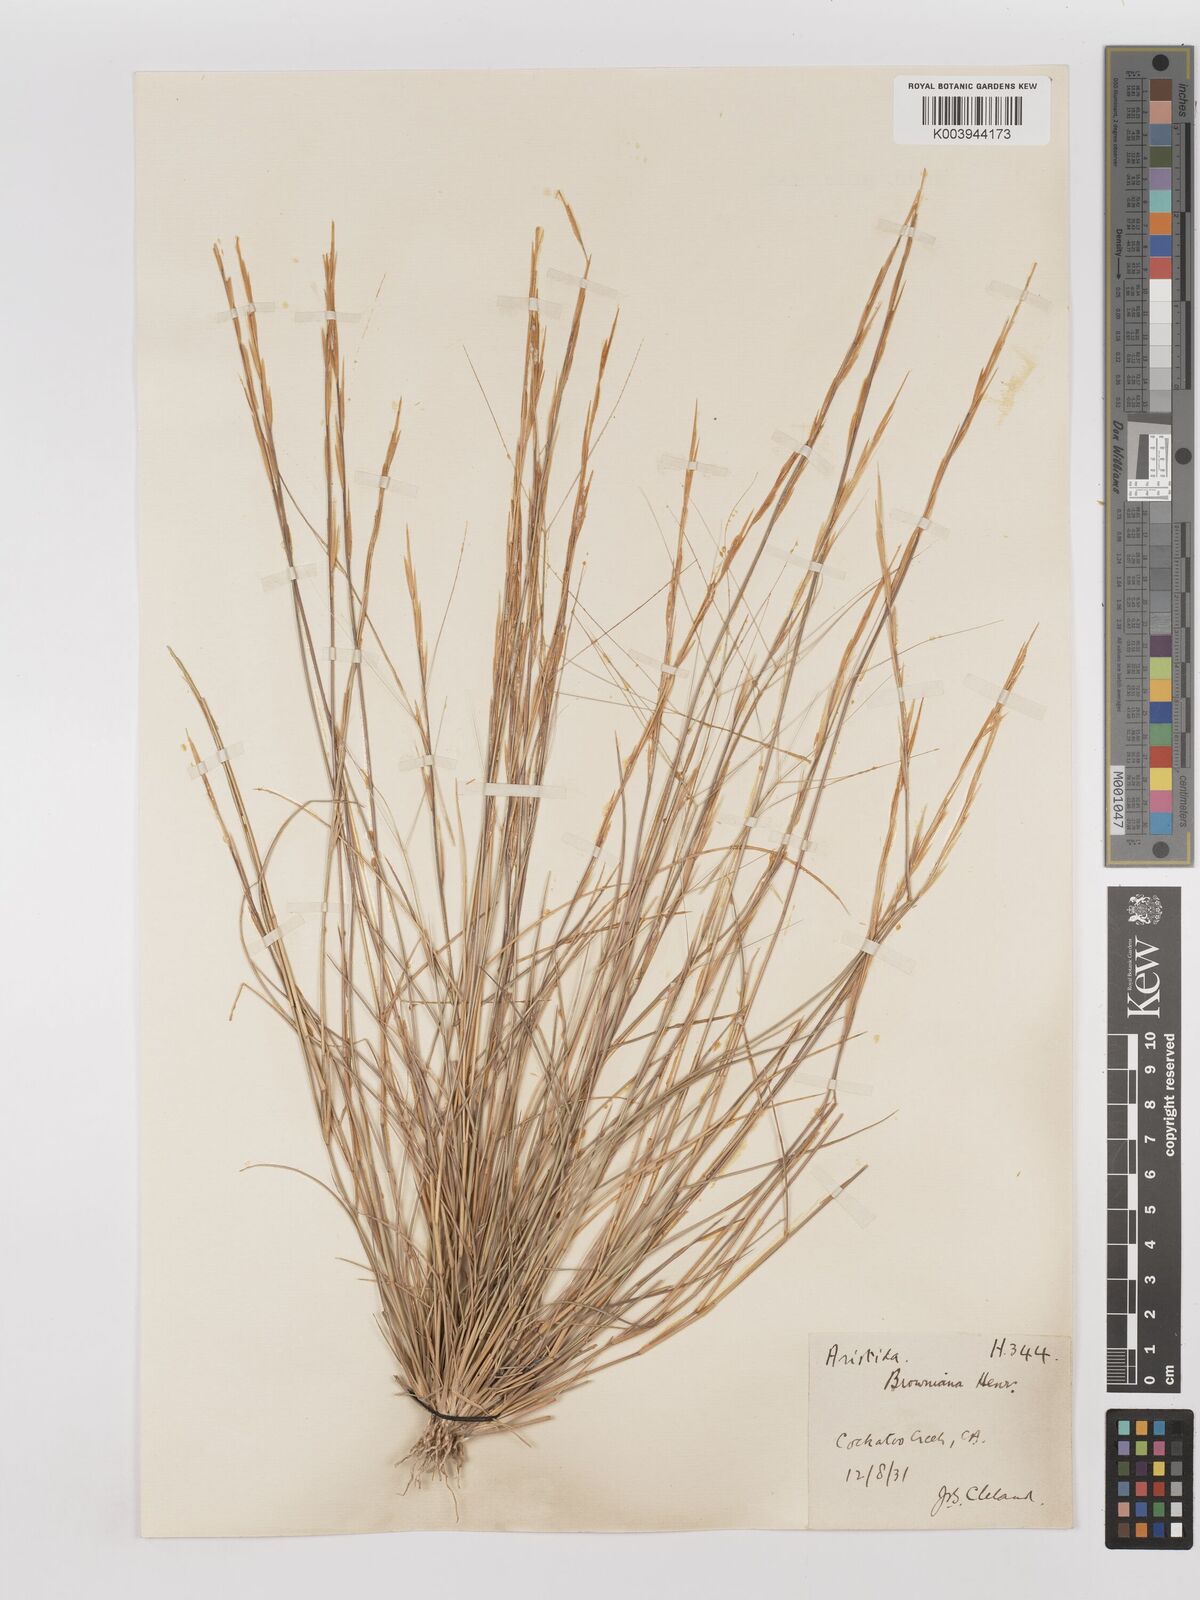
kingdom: Plantae
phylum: Tracheophyta
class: Liliopsida
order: Poales
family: Poaceae
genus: Aristida
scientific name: Aristida holathera
